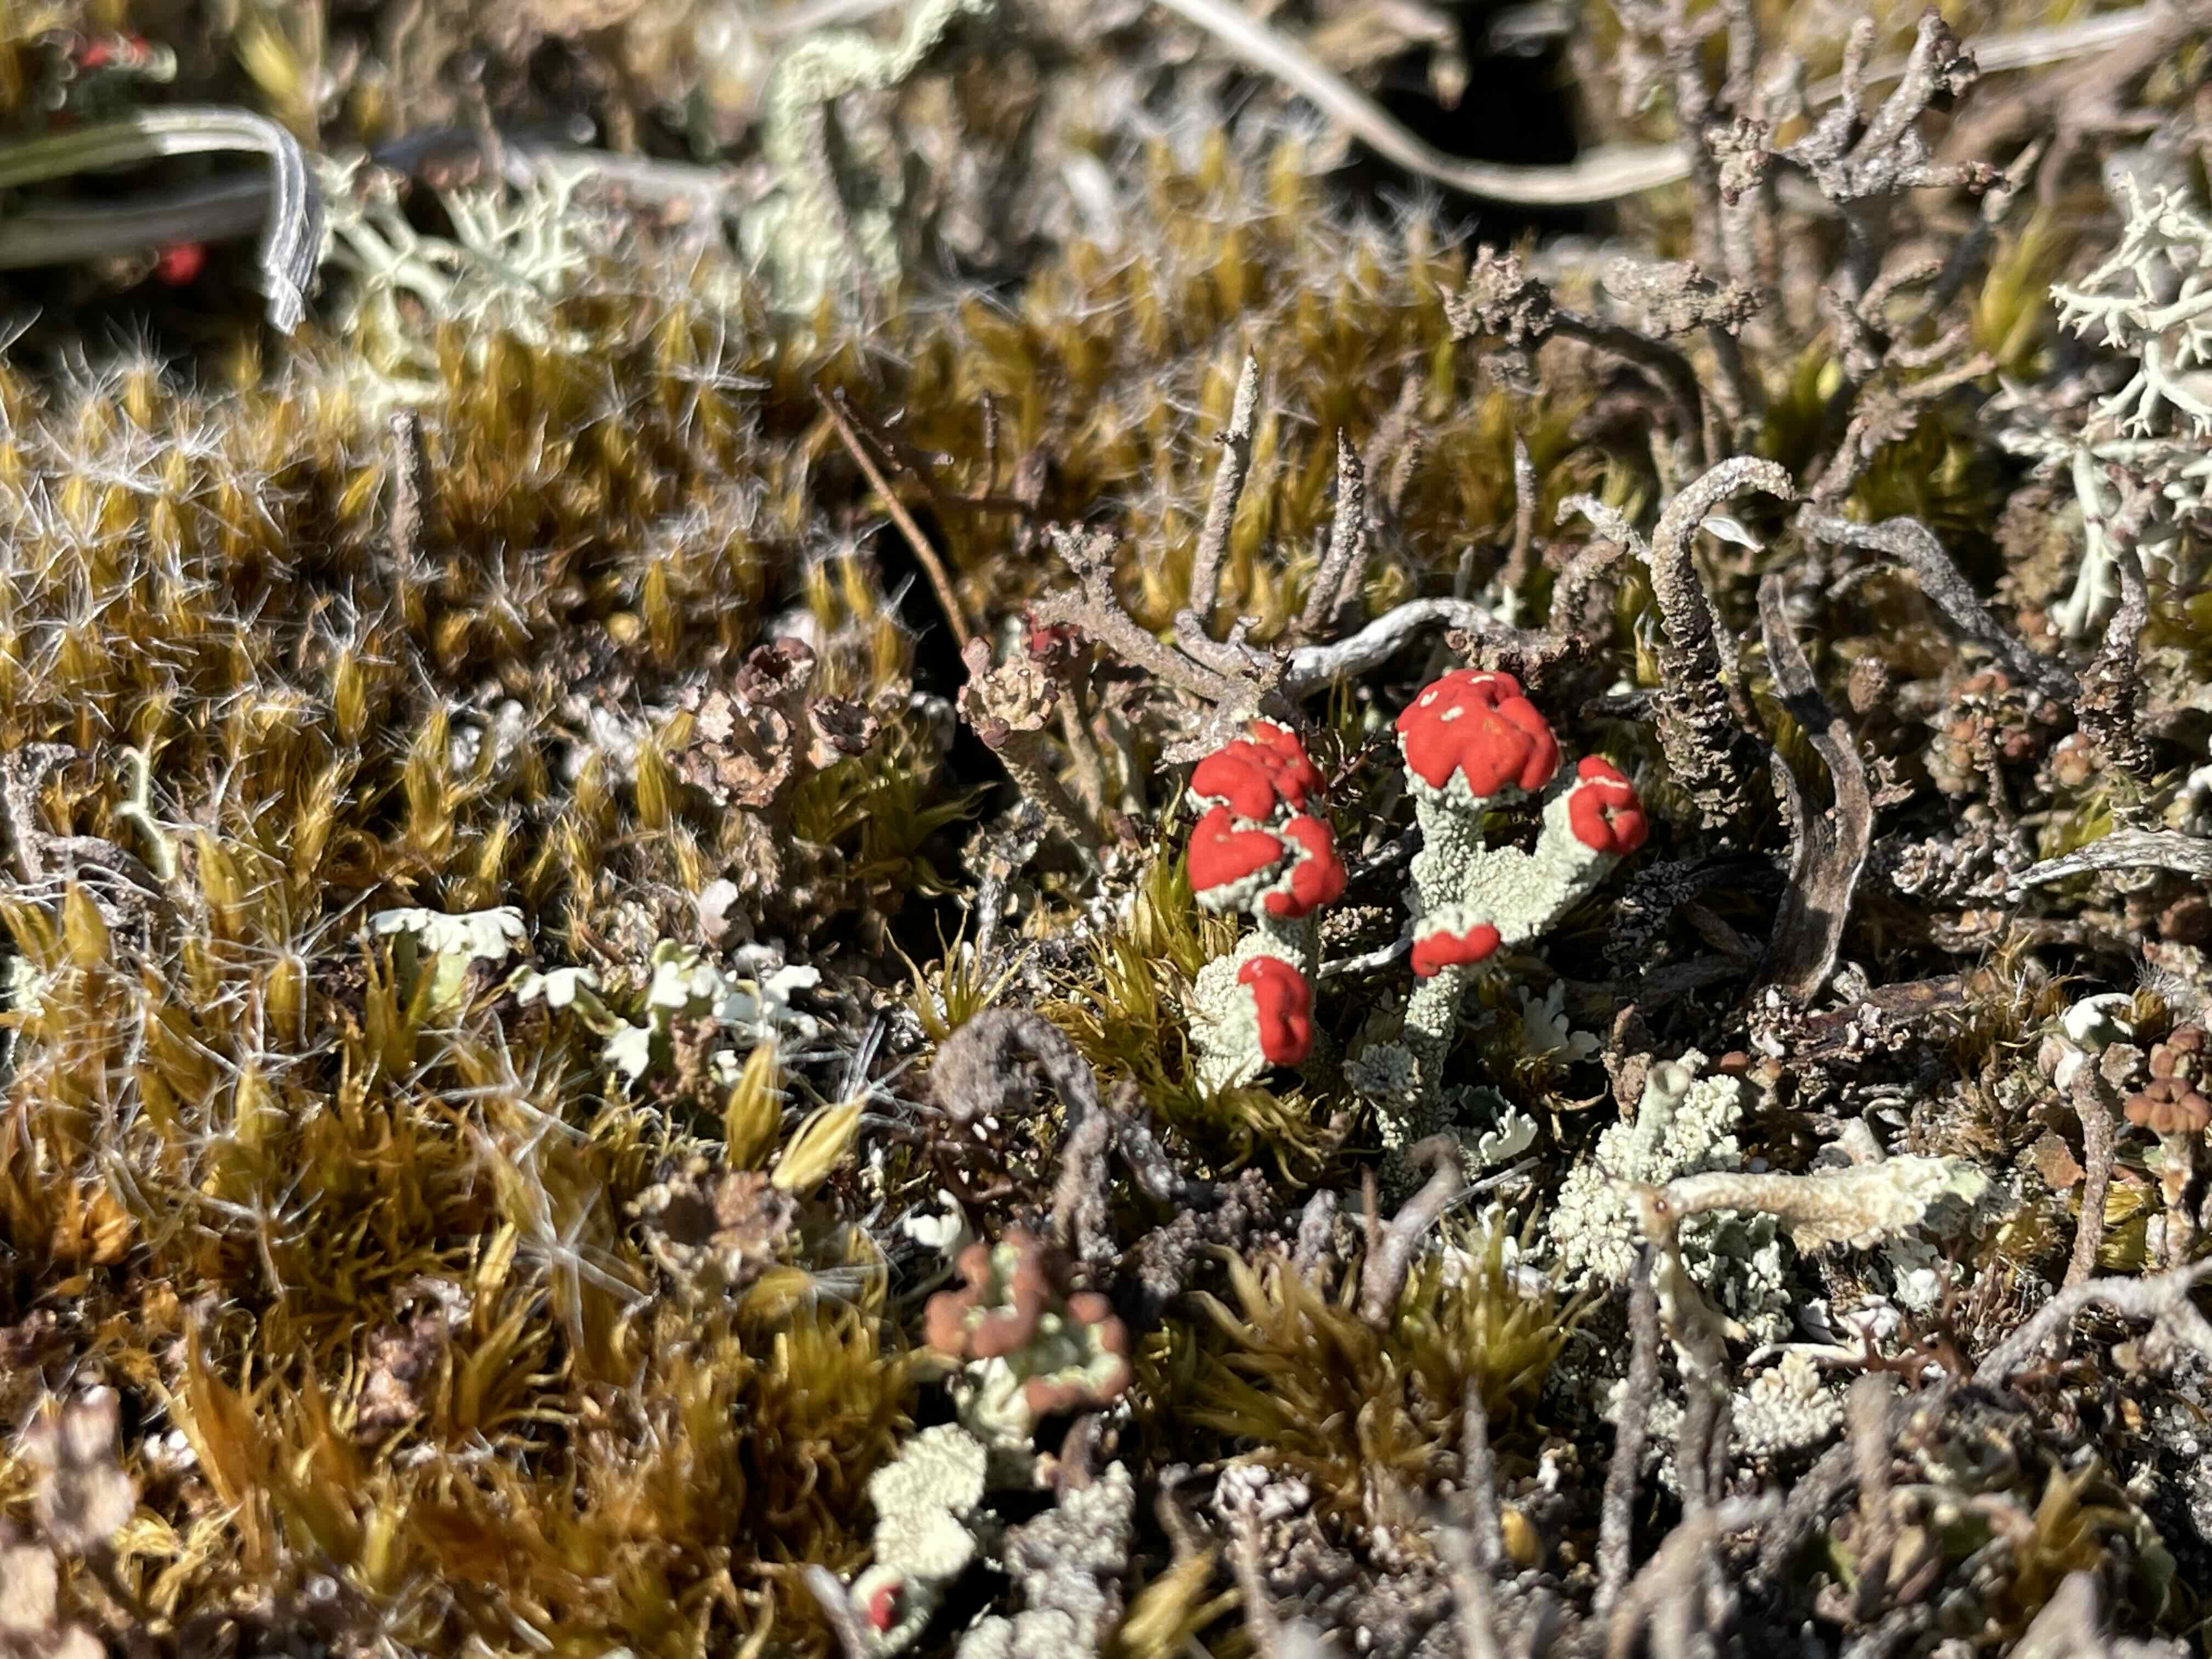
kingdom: Fungi
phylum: Ascomycota
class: Lecanoromycetes
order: Lecanorales
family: Cladoniaceae
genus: Cladonia
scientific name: Cladonia diversa
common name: rød bægerlav
